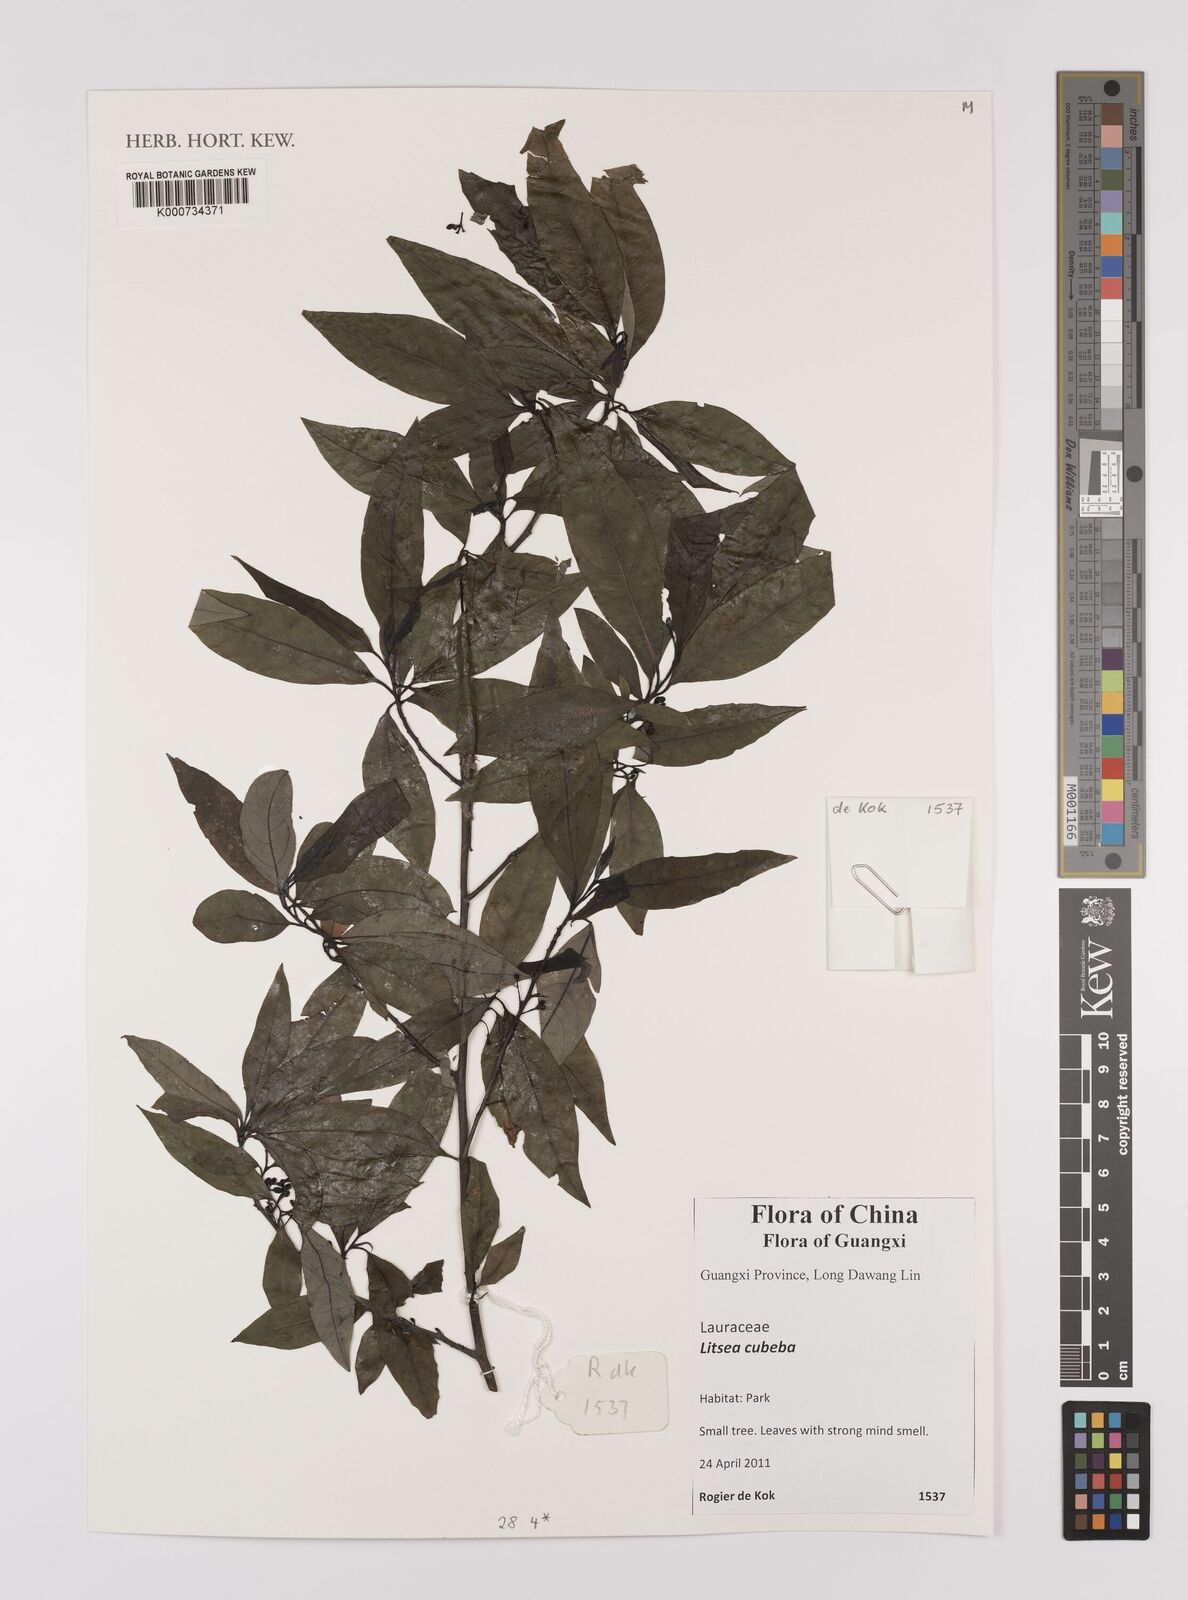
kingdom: Plantae
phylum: Tracheophyta
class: Magnoliopsida
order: Laurales
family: Lauraceae
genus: Litsea
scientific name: Litsea cubeba
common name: Mountain-pepper
